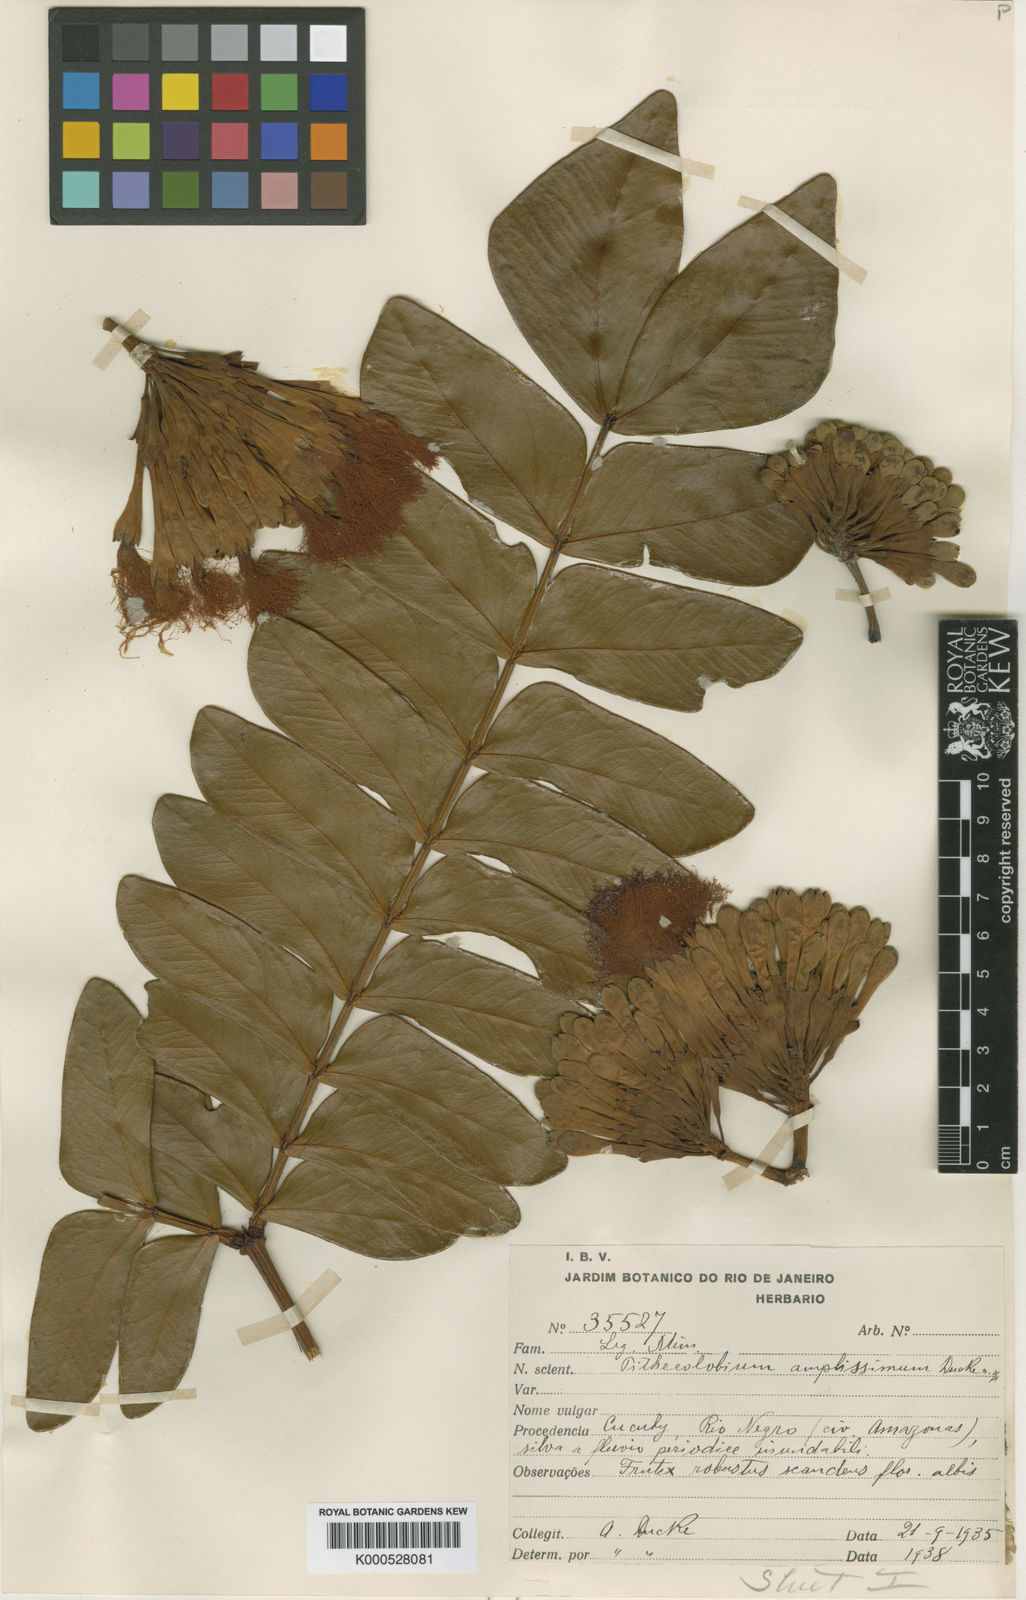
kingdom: Plantae
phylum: Tracheophyta
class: Magnoliopsida
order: Fabales
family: Fabaceae
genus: Macrosamanea
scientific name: Macrosamanea amplissima
